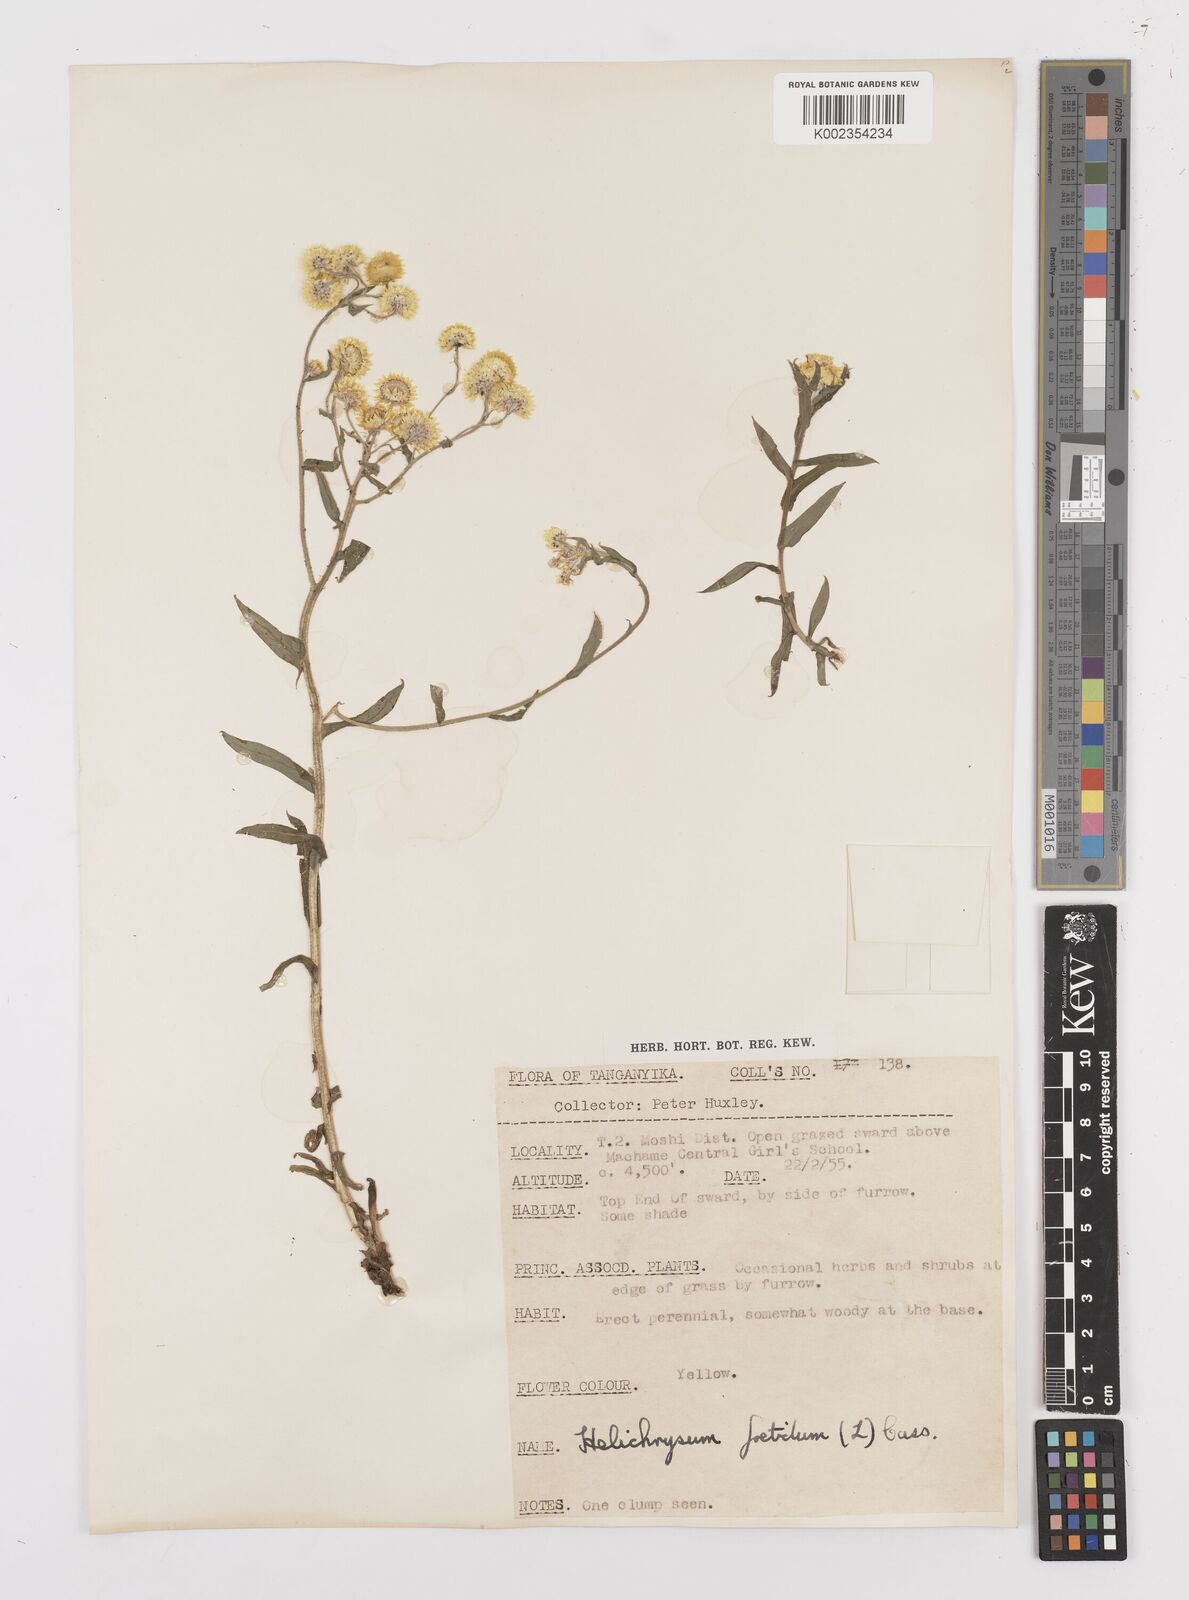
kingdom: Plantae
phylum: Tracheophyta
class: Magnoliopsida
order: Asterales
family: Asteraceae
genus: Helichrysum
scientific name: Helichrysum
